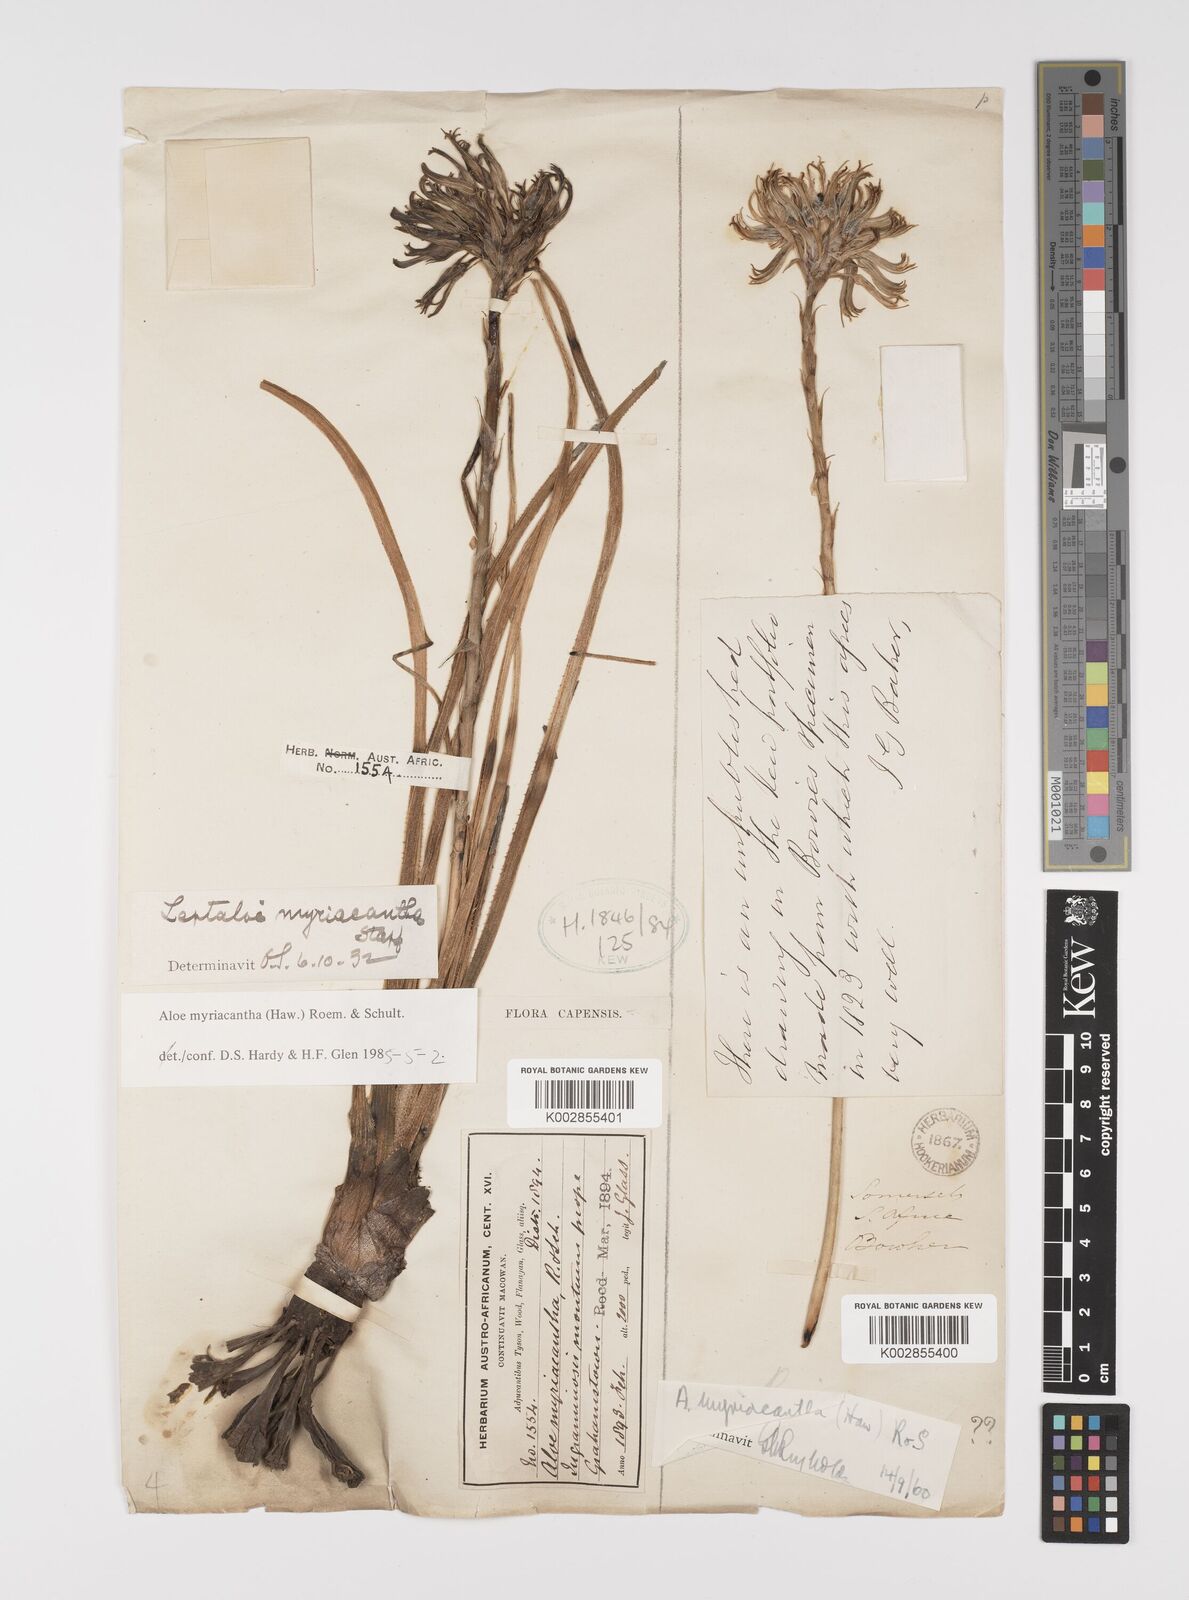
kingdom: Plantae
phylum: Tracheophyta
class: Liliopsida
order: Asparagales
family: Asphodelaceae
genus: Aloe
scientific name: Aloe myriacantha
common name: Grass aloe
